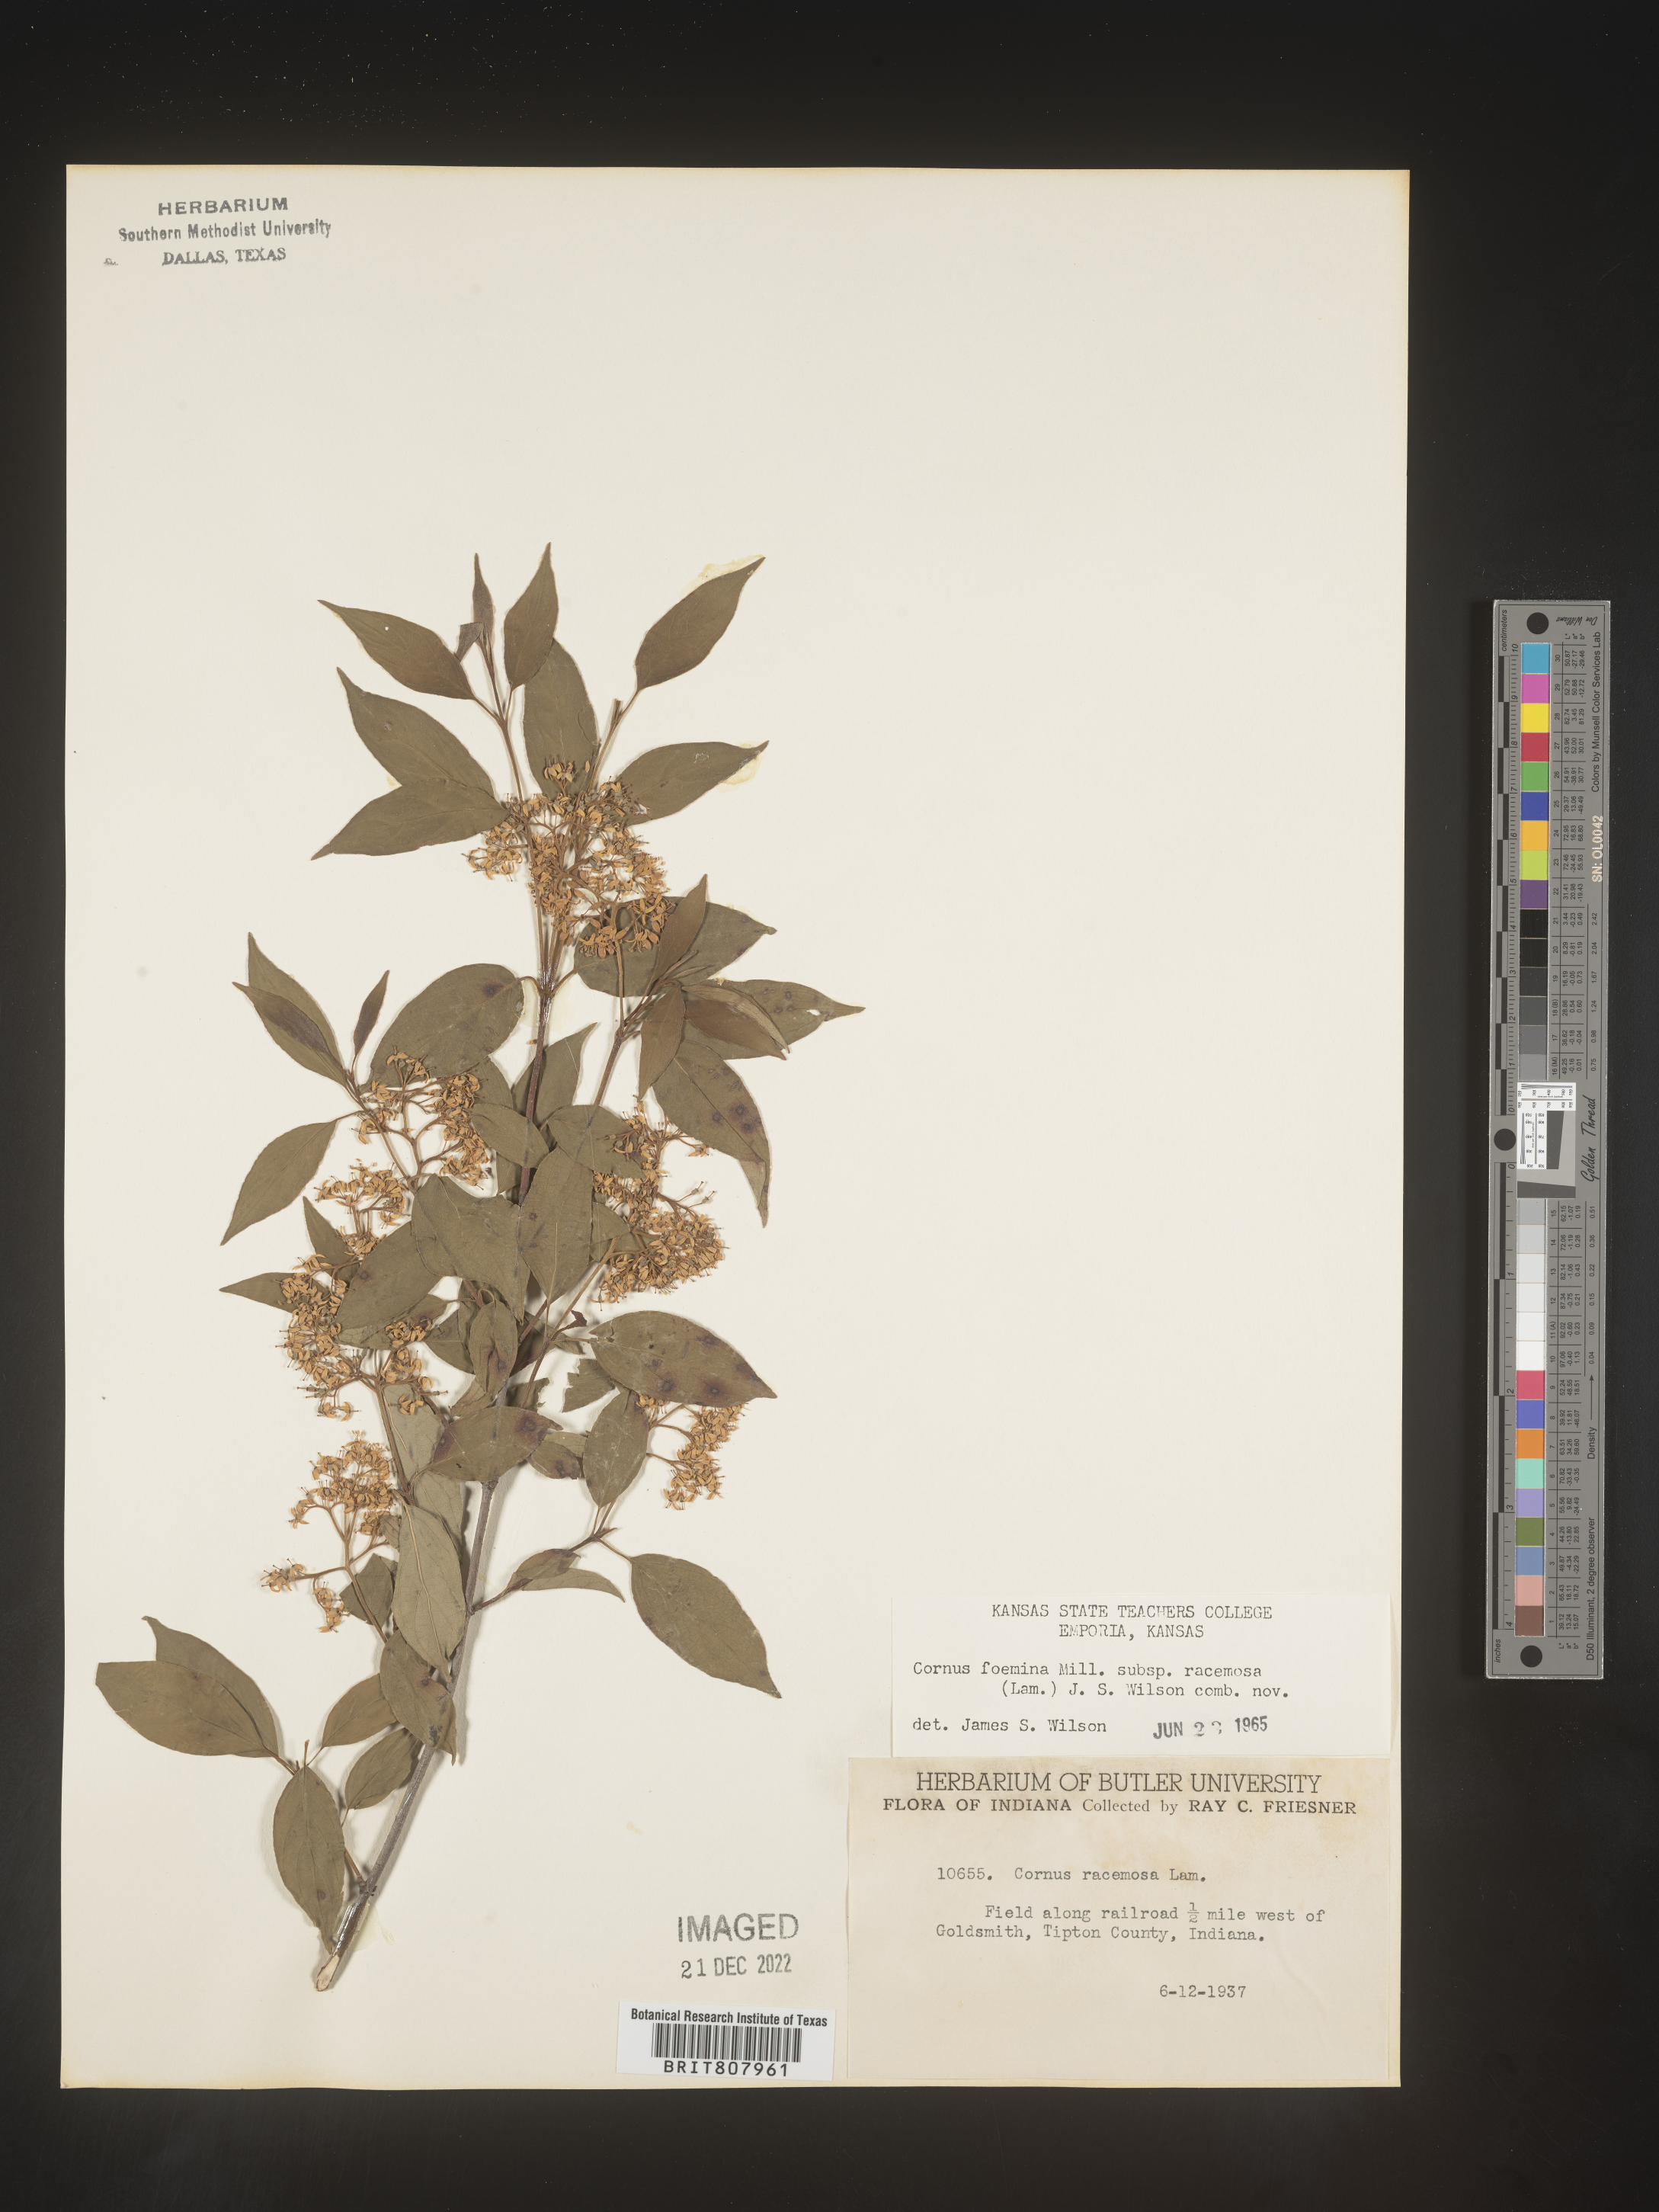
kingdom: Plantae
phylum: Tracheophyta
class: Magnoliopsida
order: Cornales
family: Cornaceae
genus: Cornus
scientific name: Cornus racemosa
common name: Panicled dogwood
